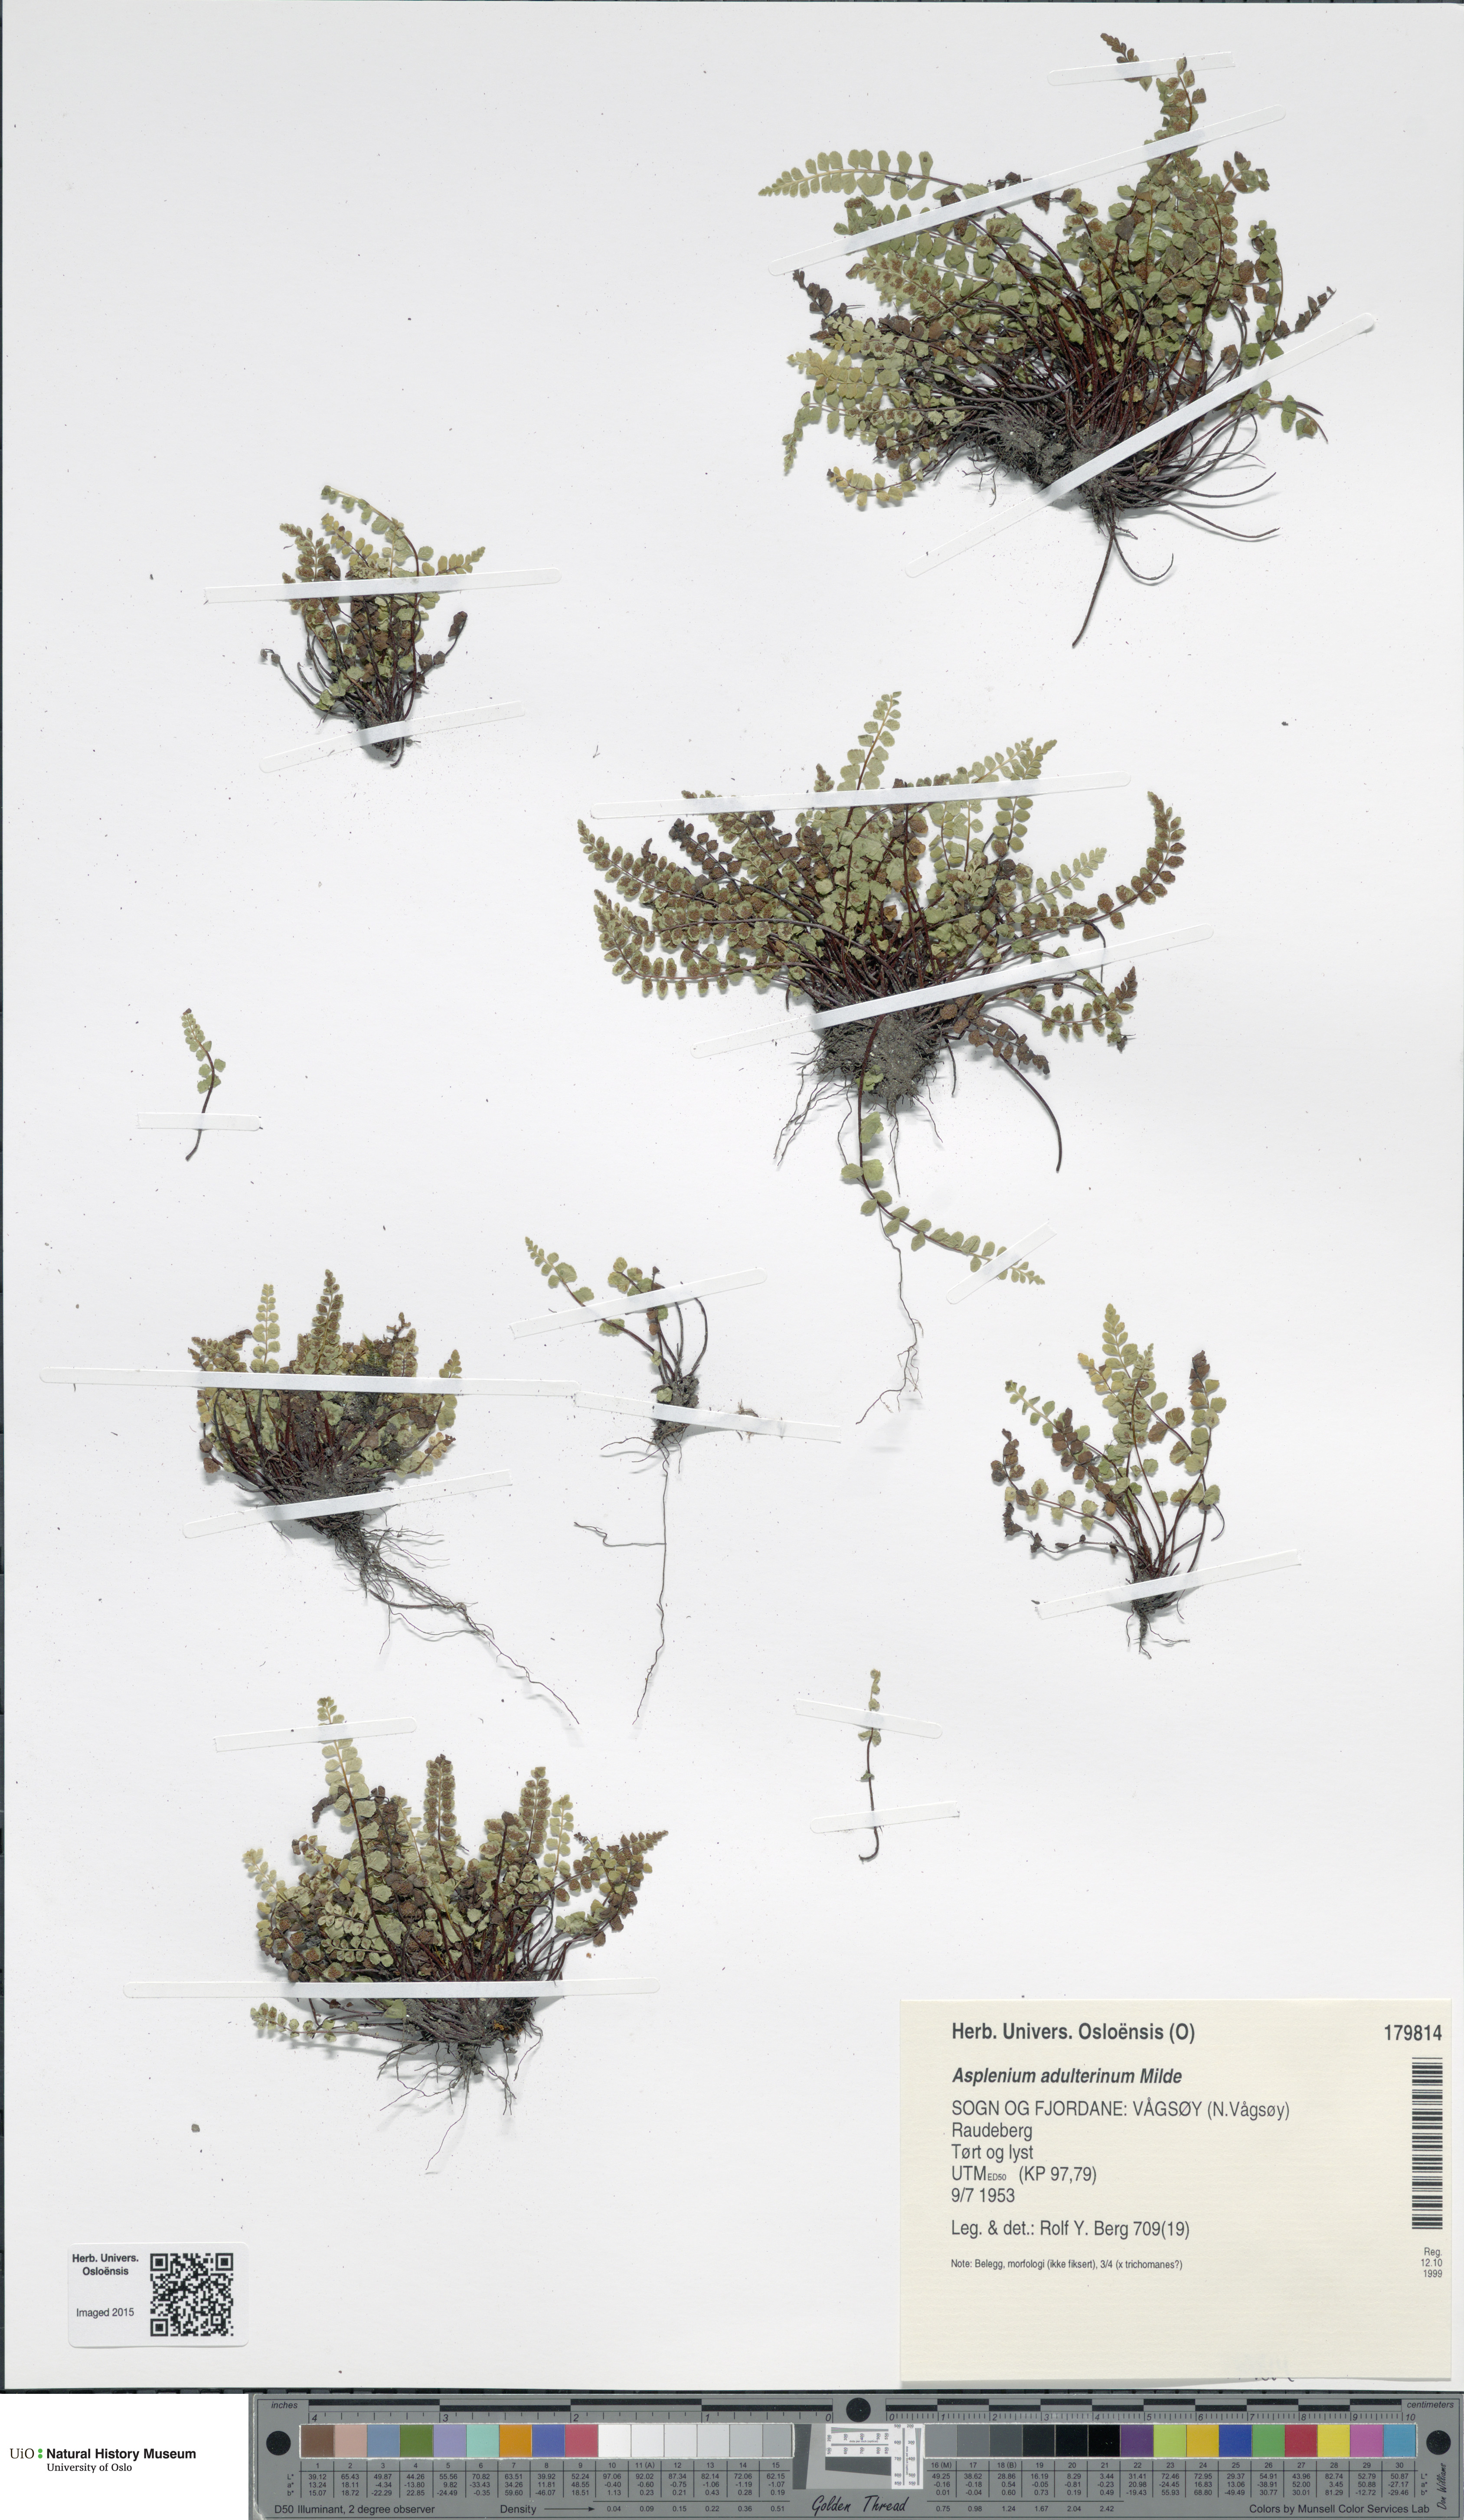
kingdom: Plantae
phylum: Tracheophyta
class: Polypodiopsida
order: Polypodiales
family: Aspleniaceae
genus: Asplenium
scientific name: Asplenium adulterinum
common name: Adulterated spleenwort
